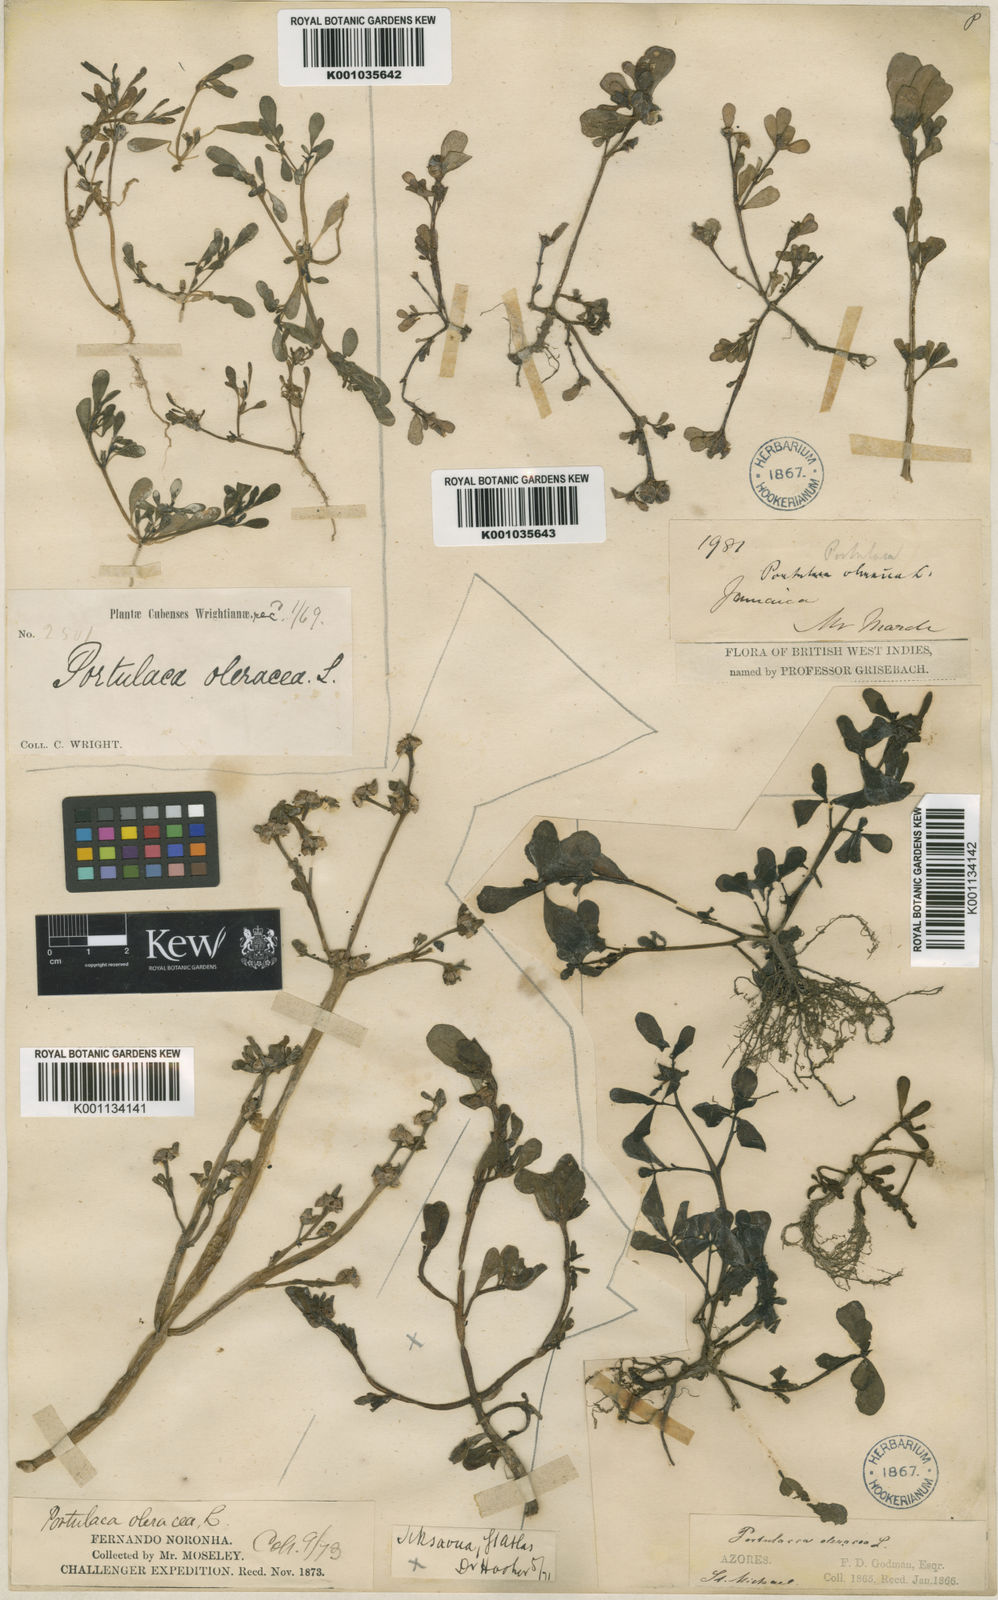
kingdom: Plantae
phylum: Tracheophyta
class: Magnoliopsida
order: Caryophyllales
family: Portulacaceae
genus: Portulaca
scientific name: Portulaca oleracea
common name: Common purslane
